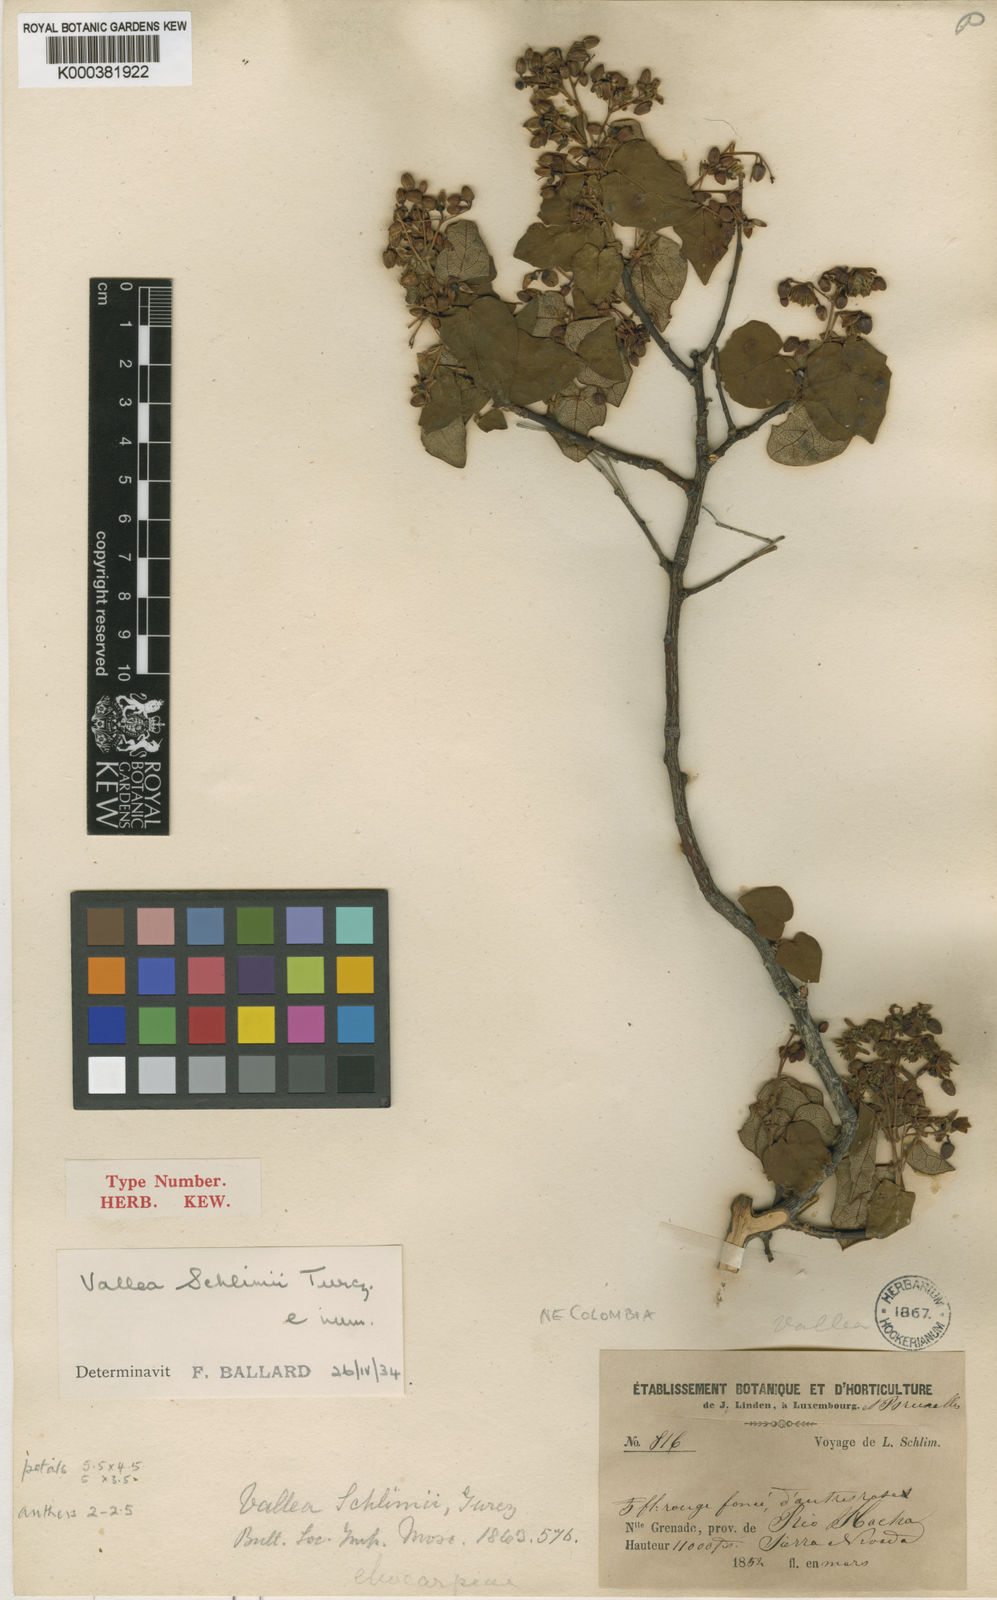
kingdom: Plantae
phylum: Tracheophyta
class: Magnoliopsida
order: Oxalidales
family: Elaeocarpaceae
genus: Vallea
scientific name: Vallea stipularis
